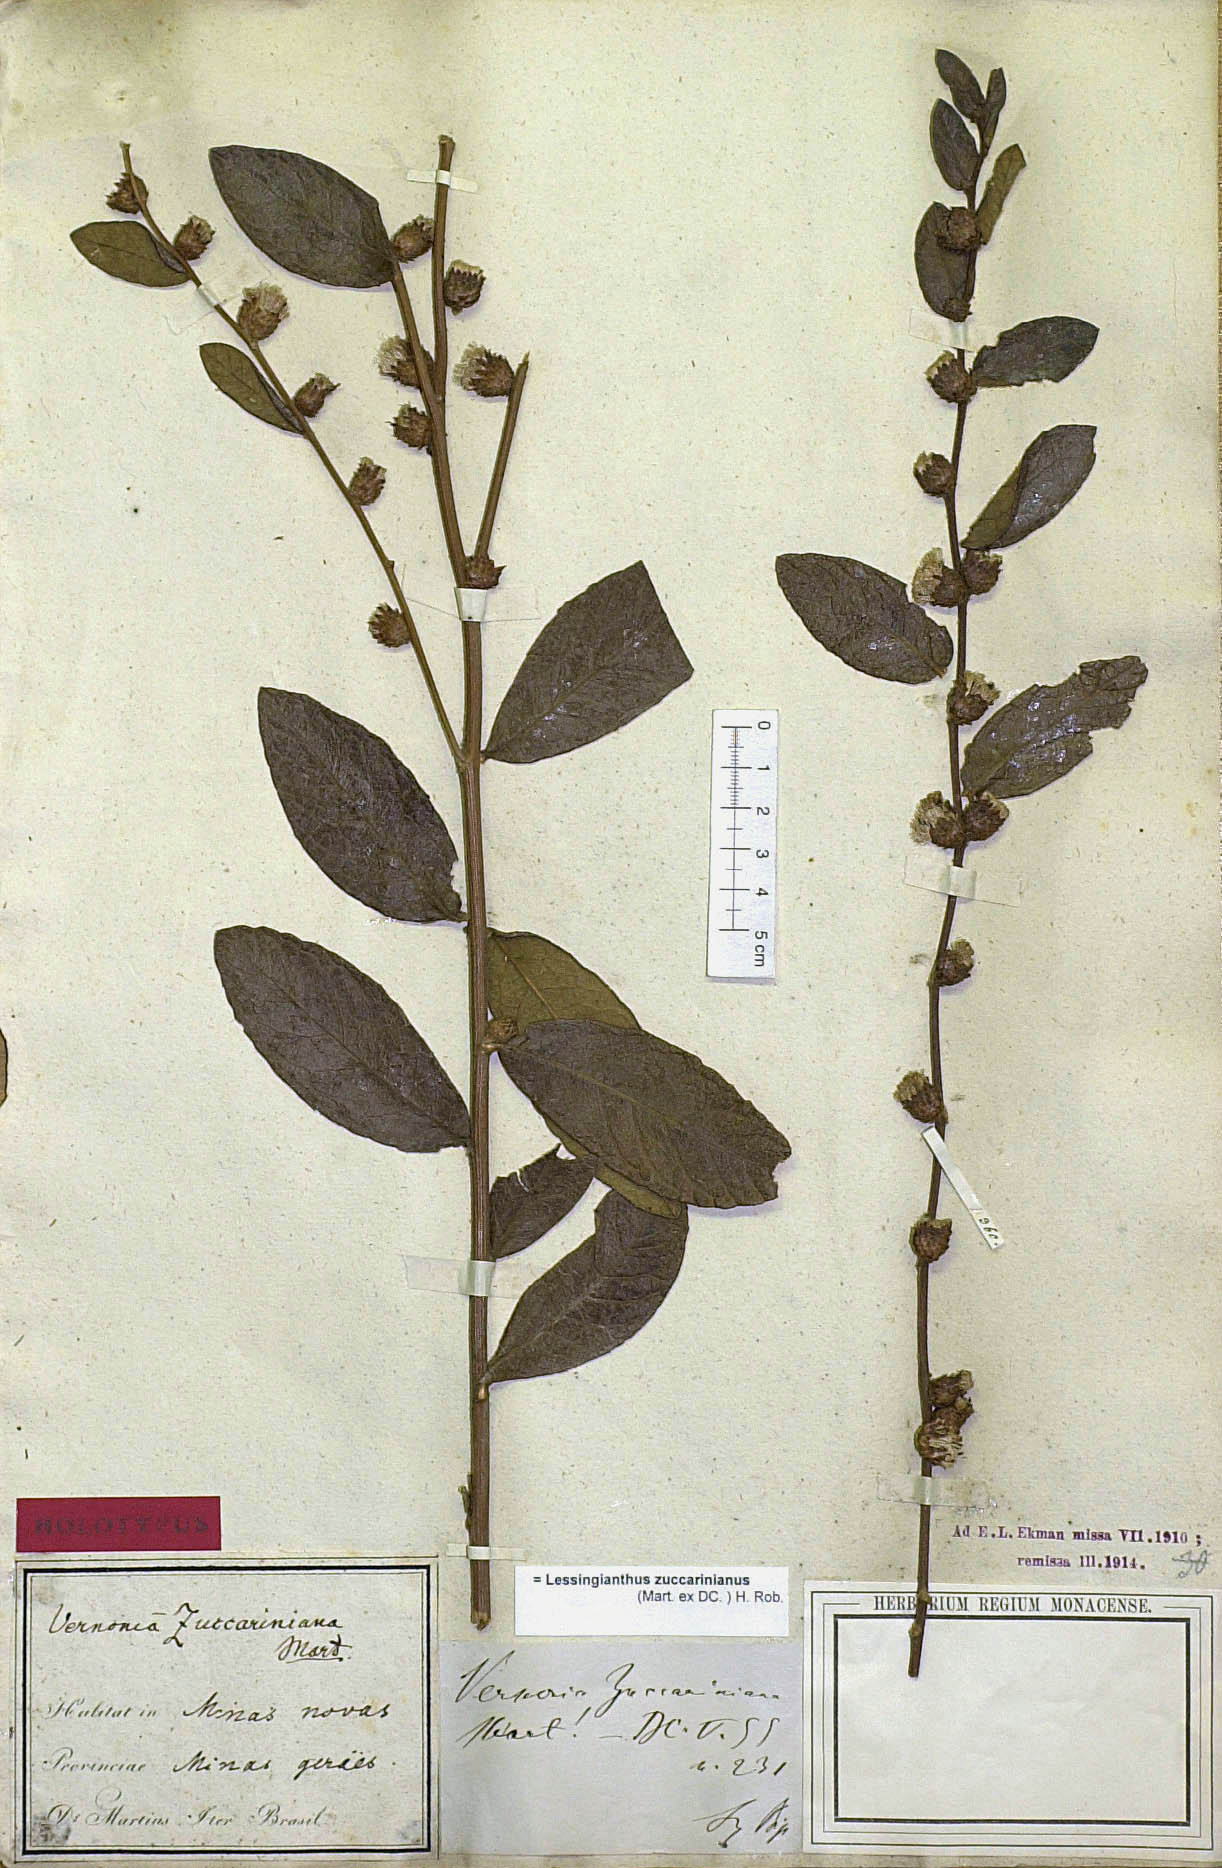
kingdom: Plantae
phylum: Tracheophyta
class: Magnoliopsida
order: Asterales
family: Asteraceae
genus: Lessingianthus
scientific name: Lessingianthus zuccarinianus
